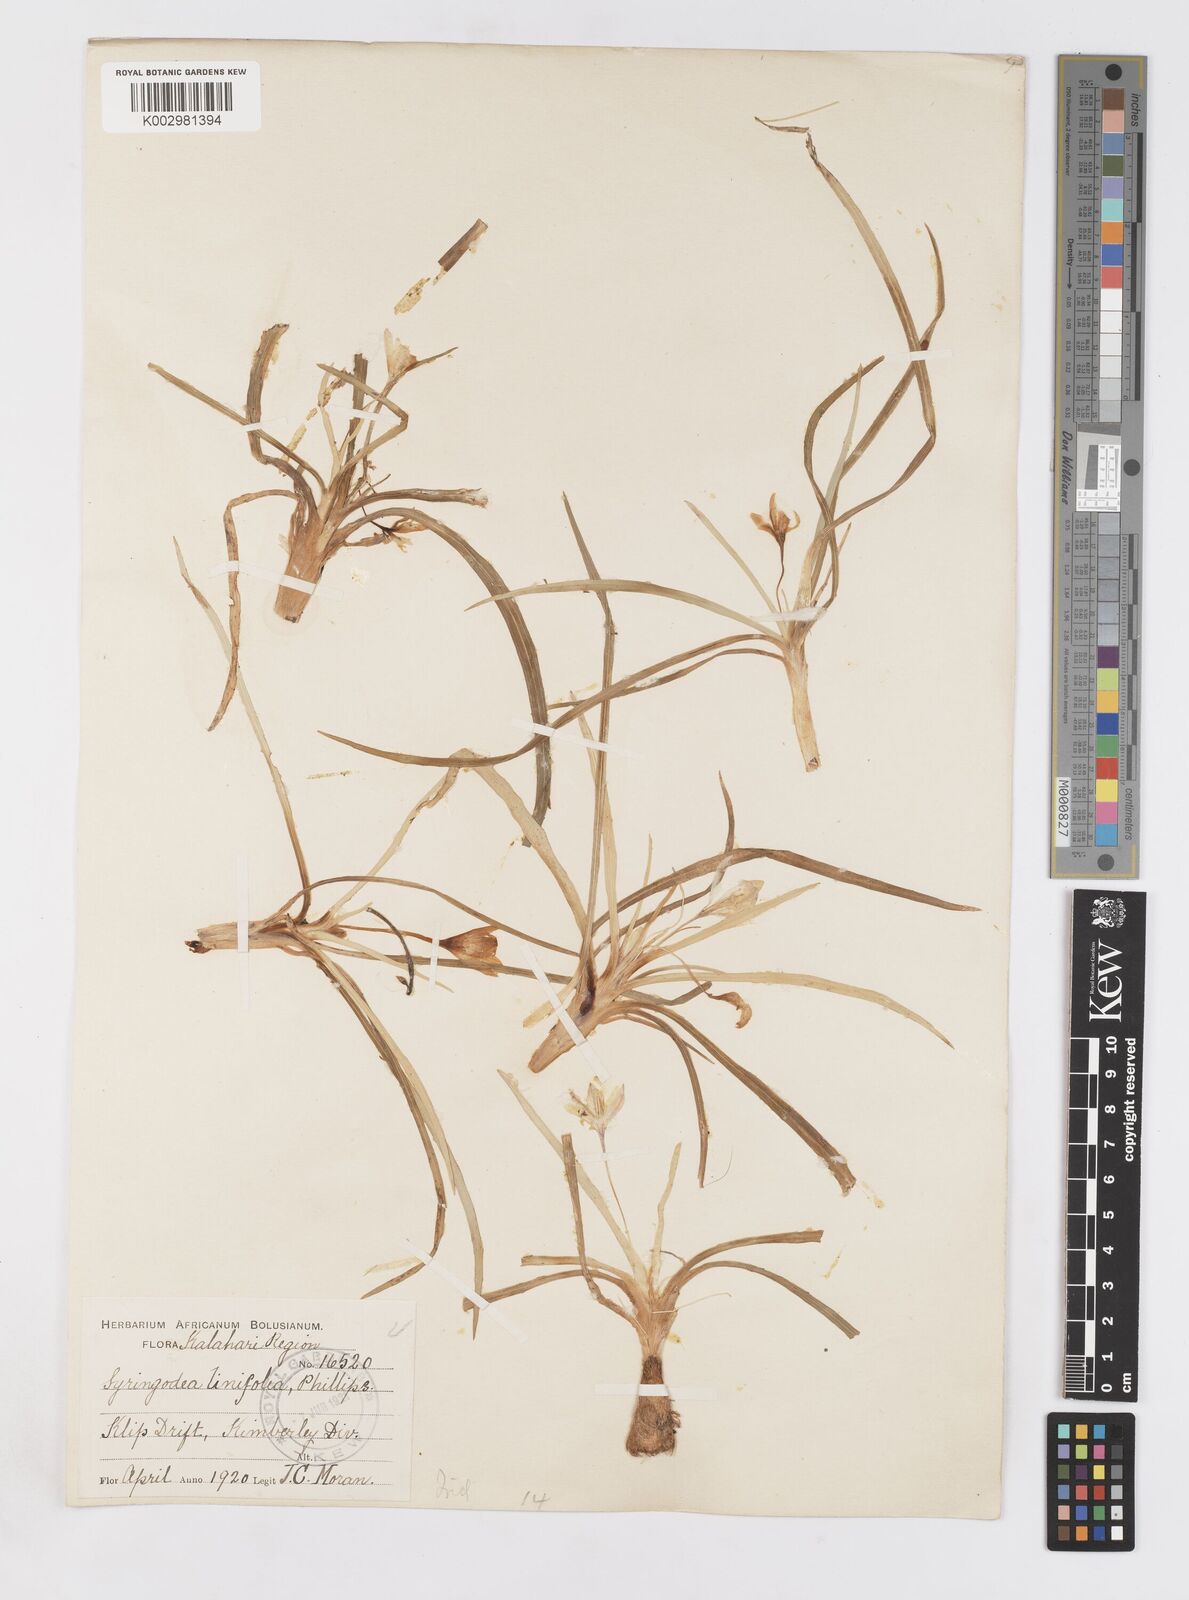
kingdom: Plantae
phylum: Tracheophyta
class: Liliopsida
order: Asparagales
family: Iridaceae
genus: Duthiastrum
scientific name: Duthiastrum linifolium
